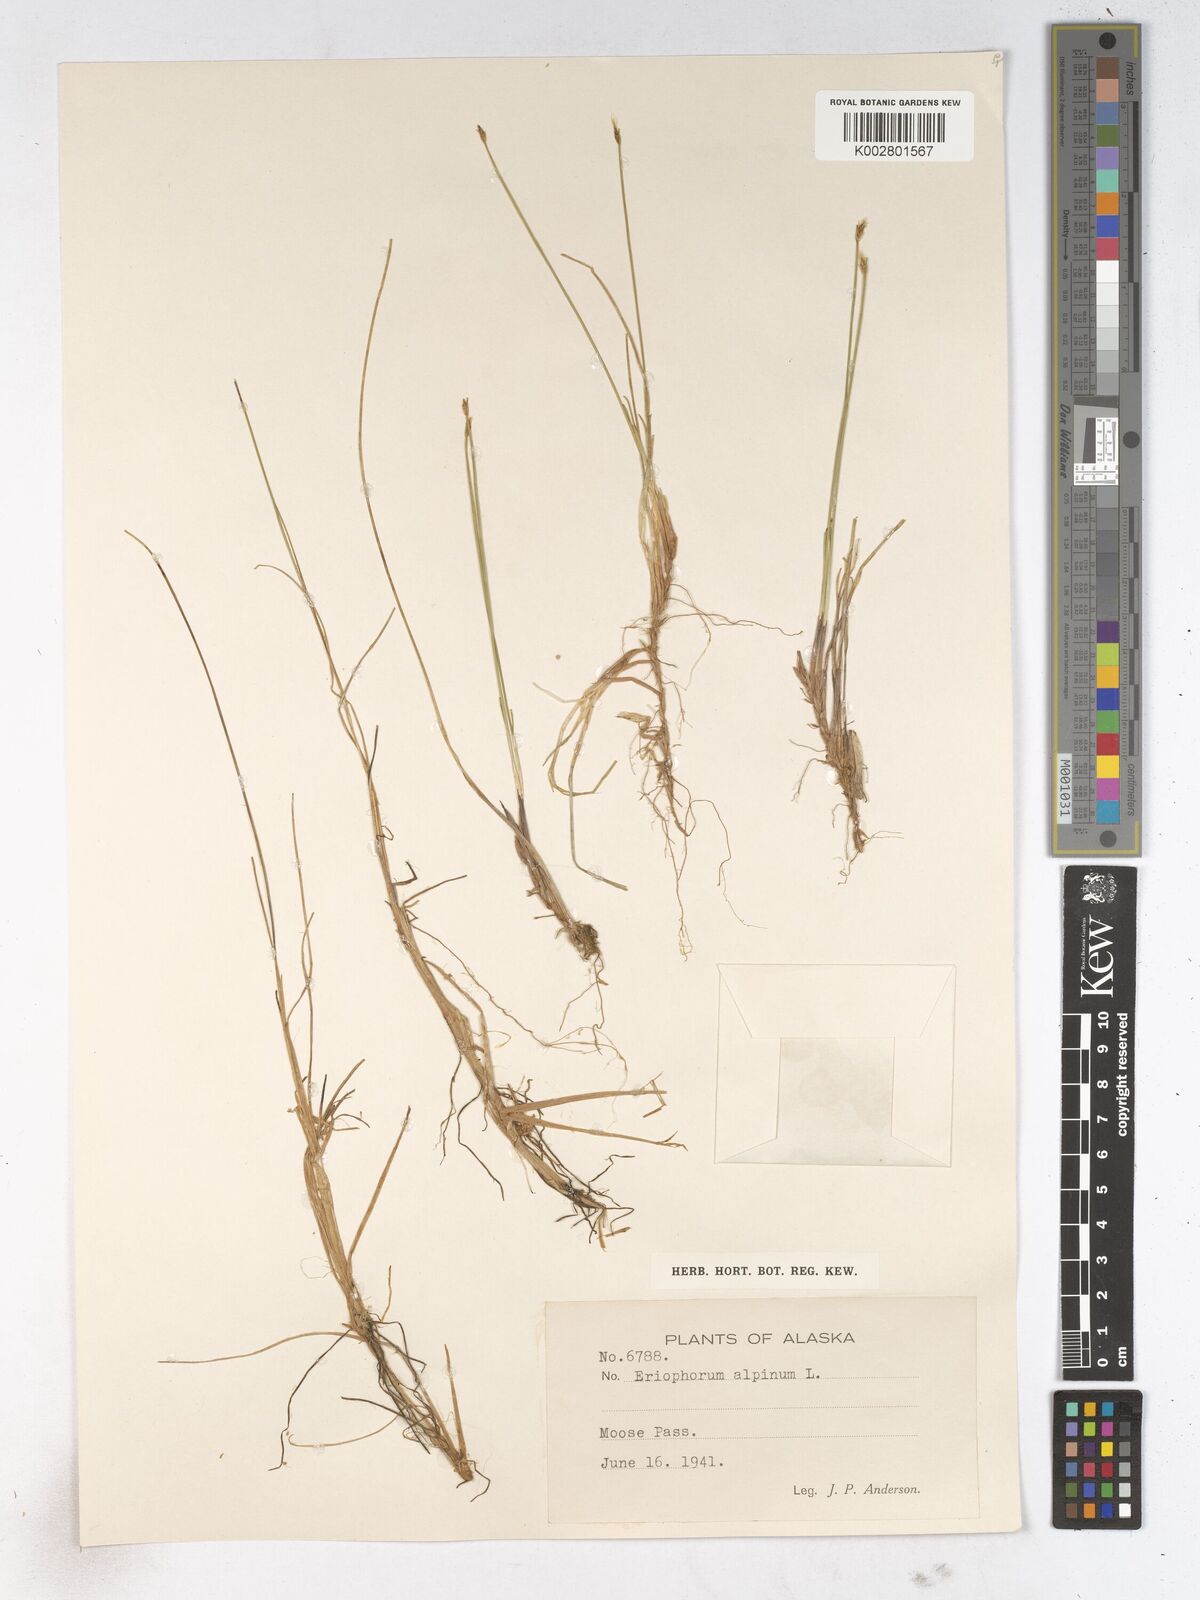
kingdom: Plantae
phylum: Tracheophyta
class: Liliopsida
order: Poales
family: Cyperaceae
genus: Trichophorum
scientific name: Trichophorum alpinum
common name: Alpine bulrush
